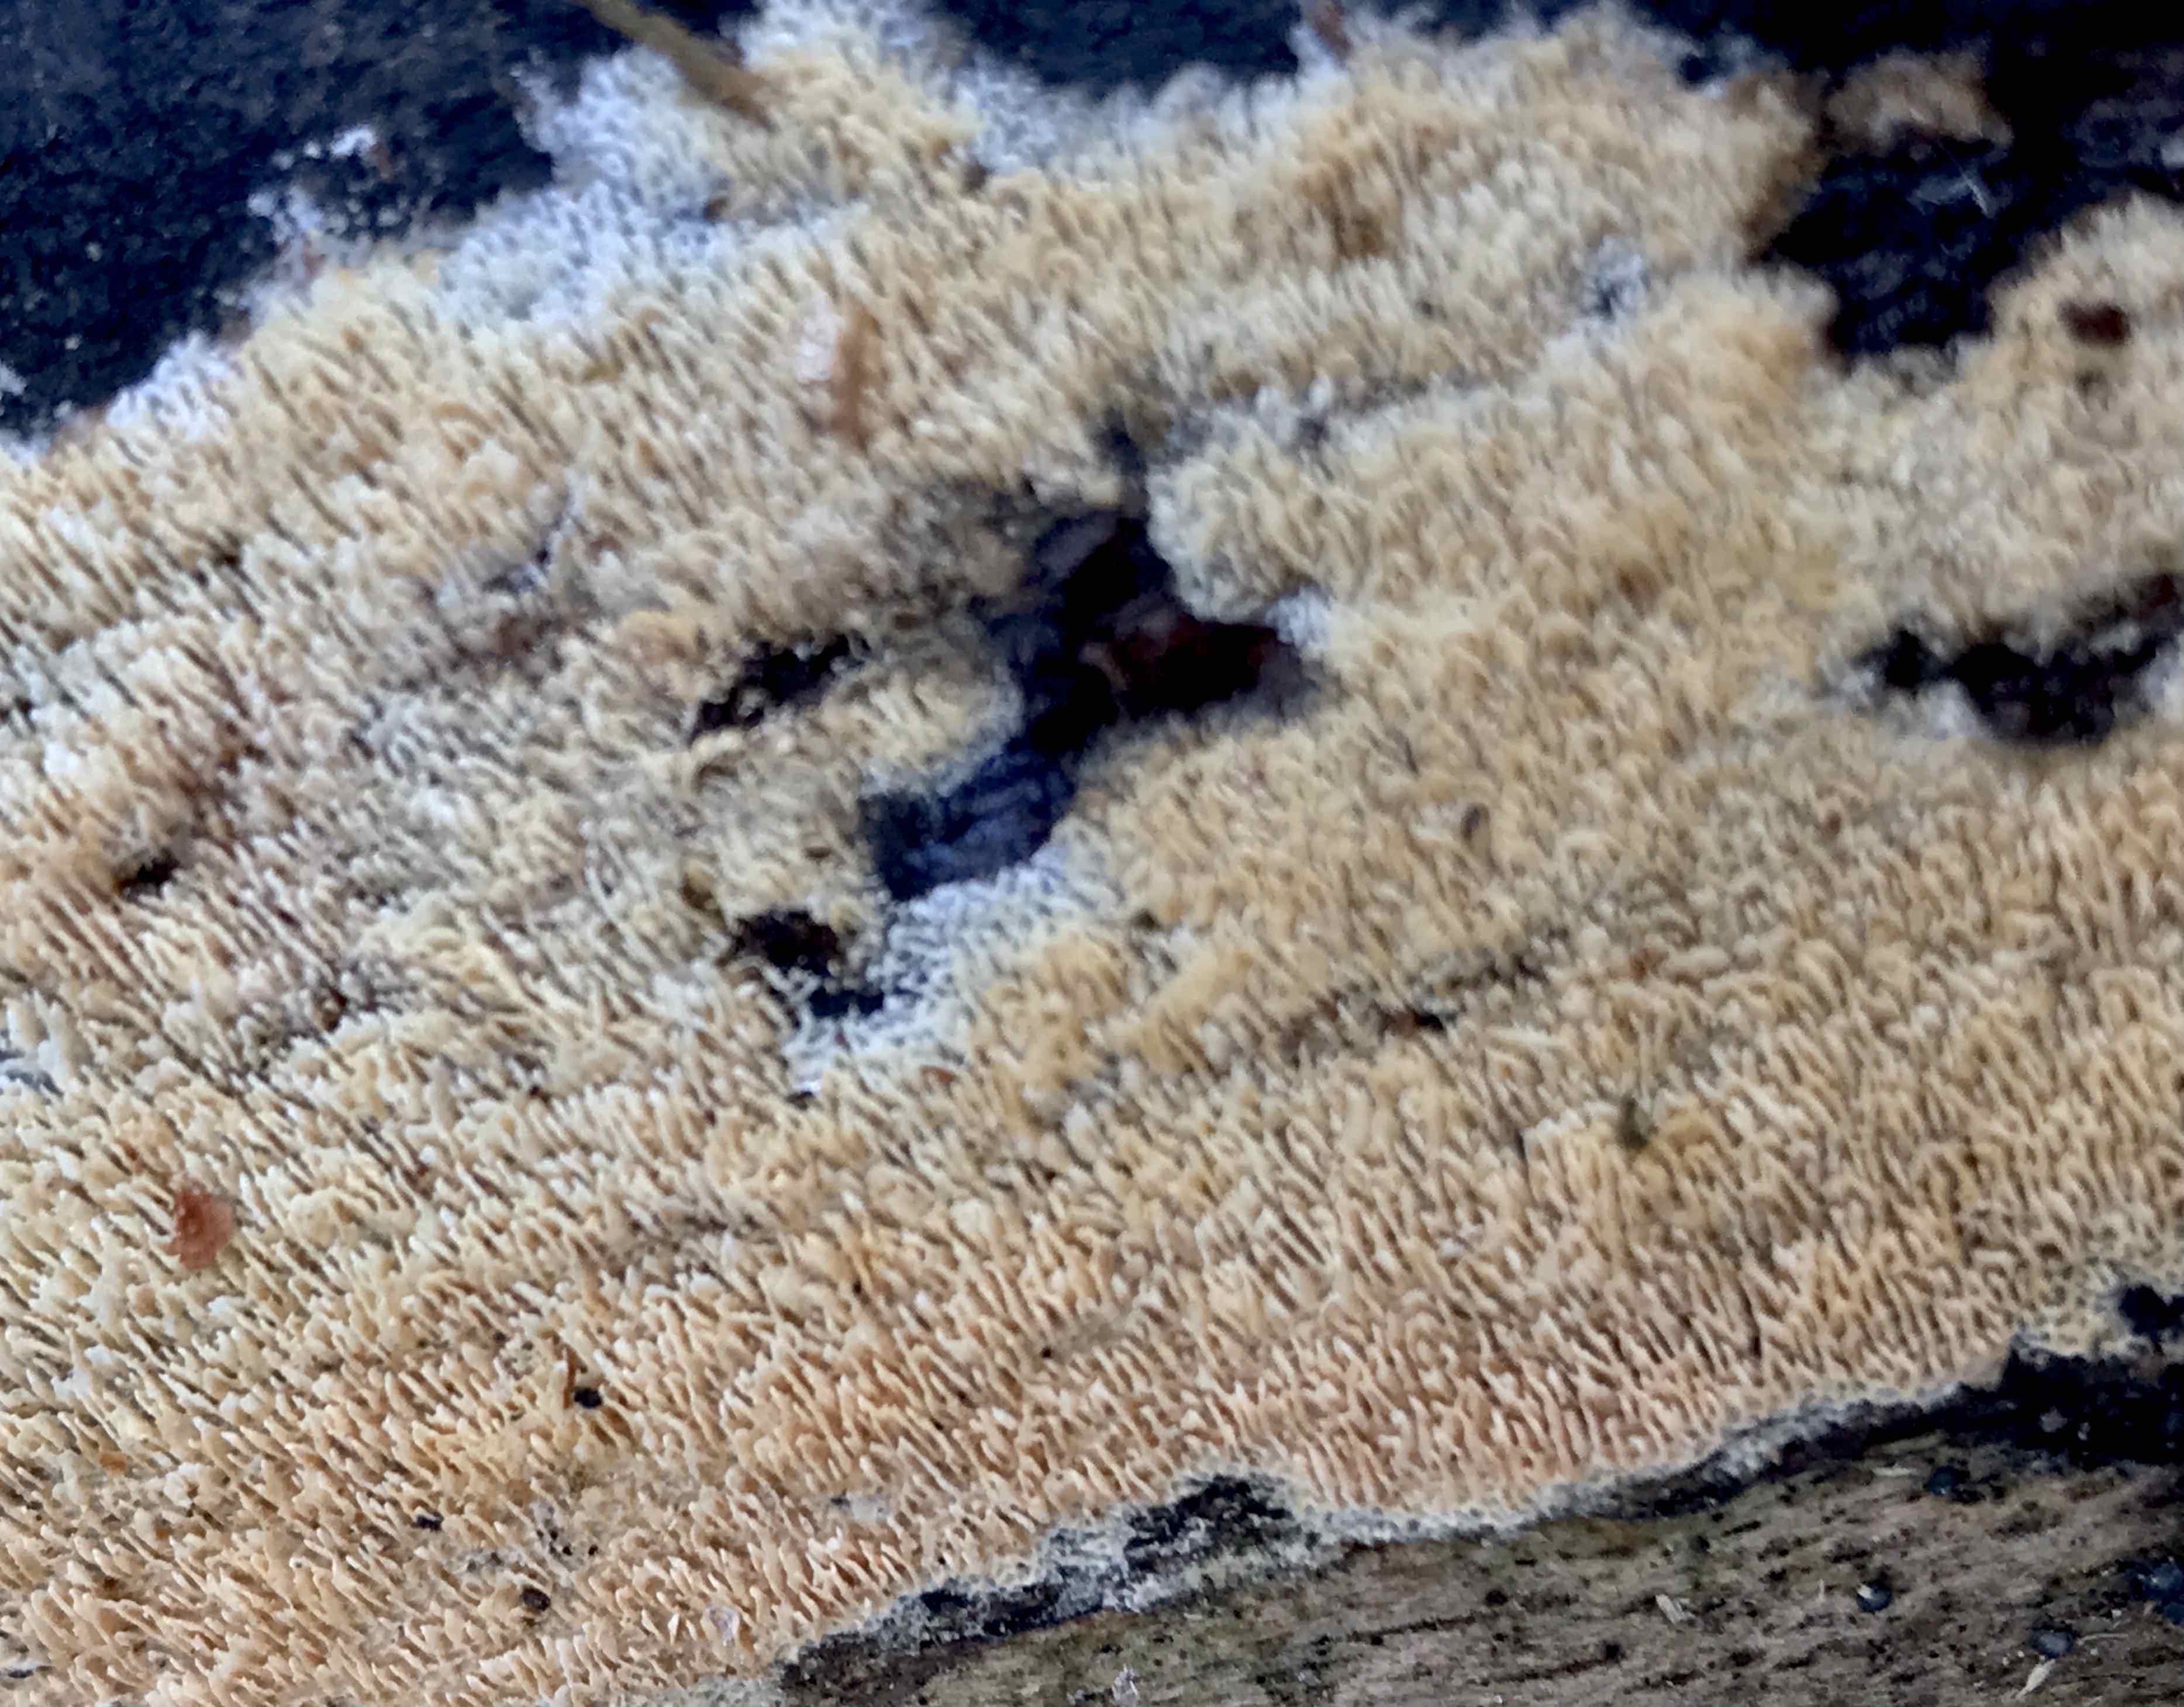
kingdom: Fungi
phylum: Basidiomycota
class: Agaricomycetes
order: Hymenochaetales
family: Schizoporaceae
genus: Schizopora
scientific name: Schizopora paradoxa
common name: hvid tandsvamp
